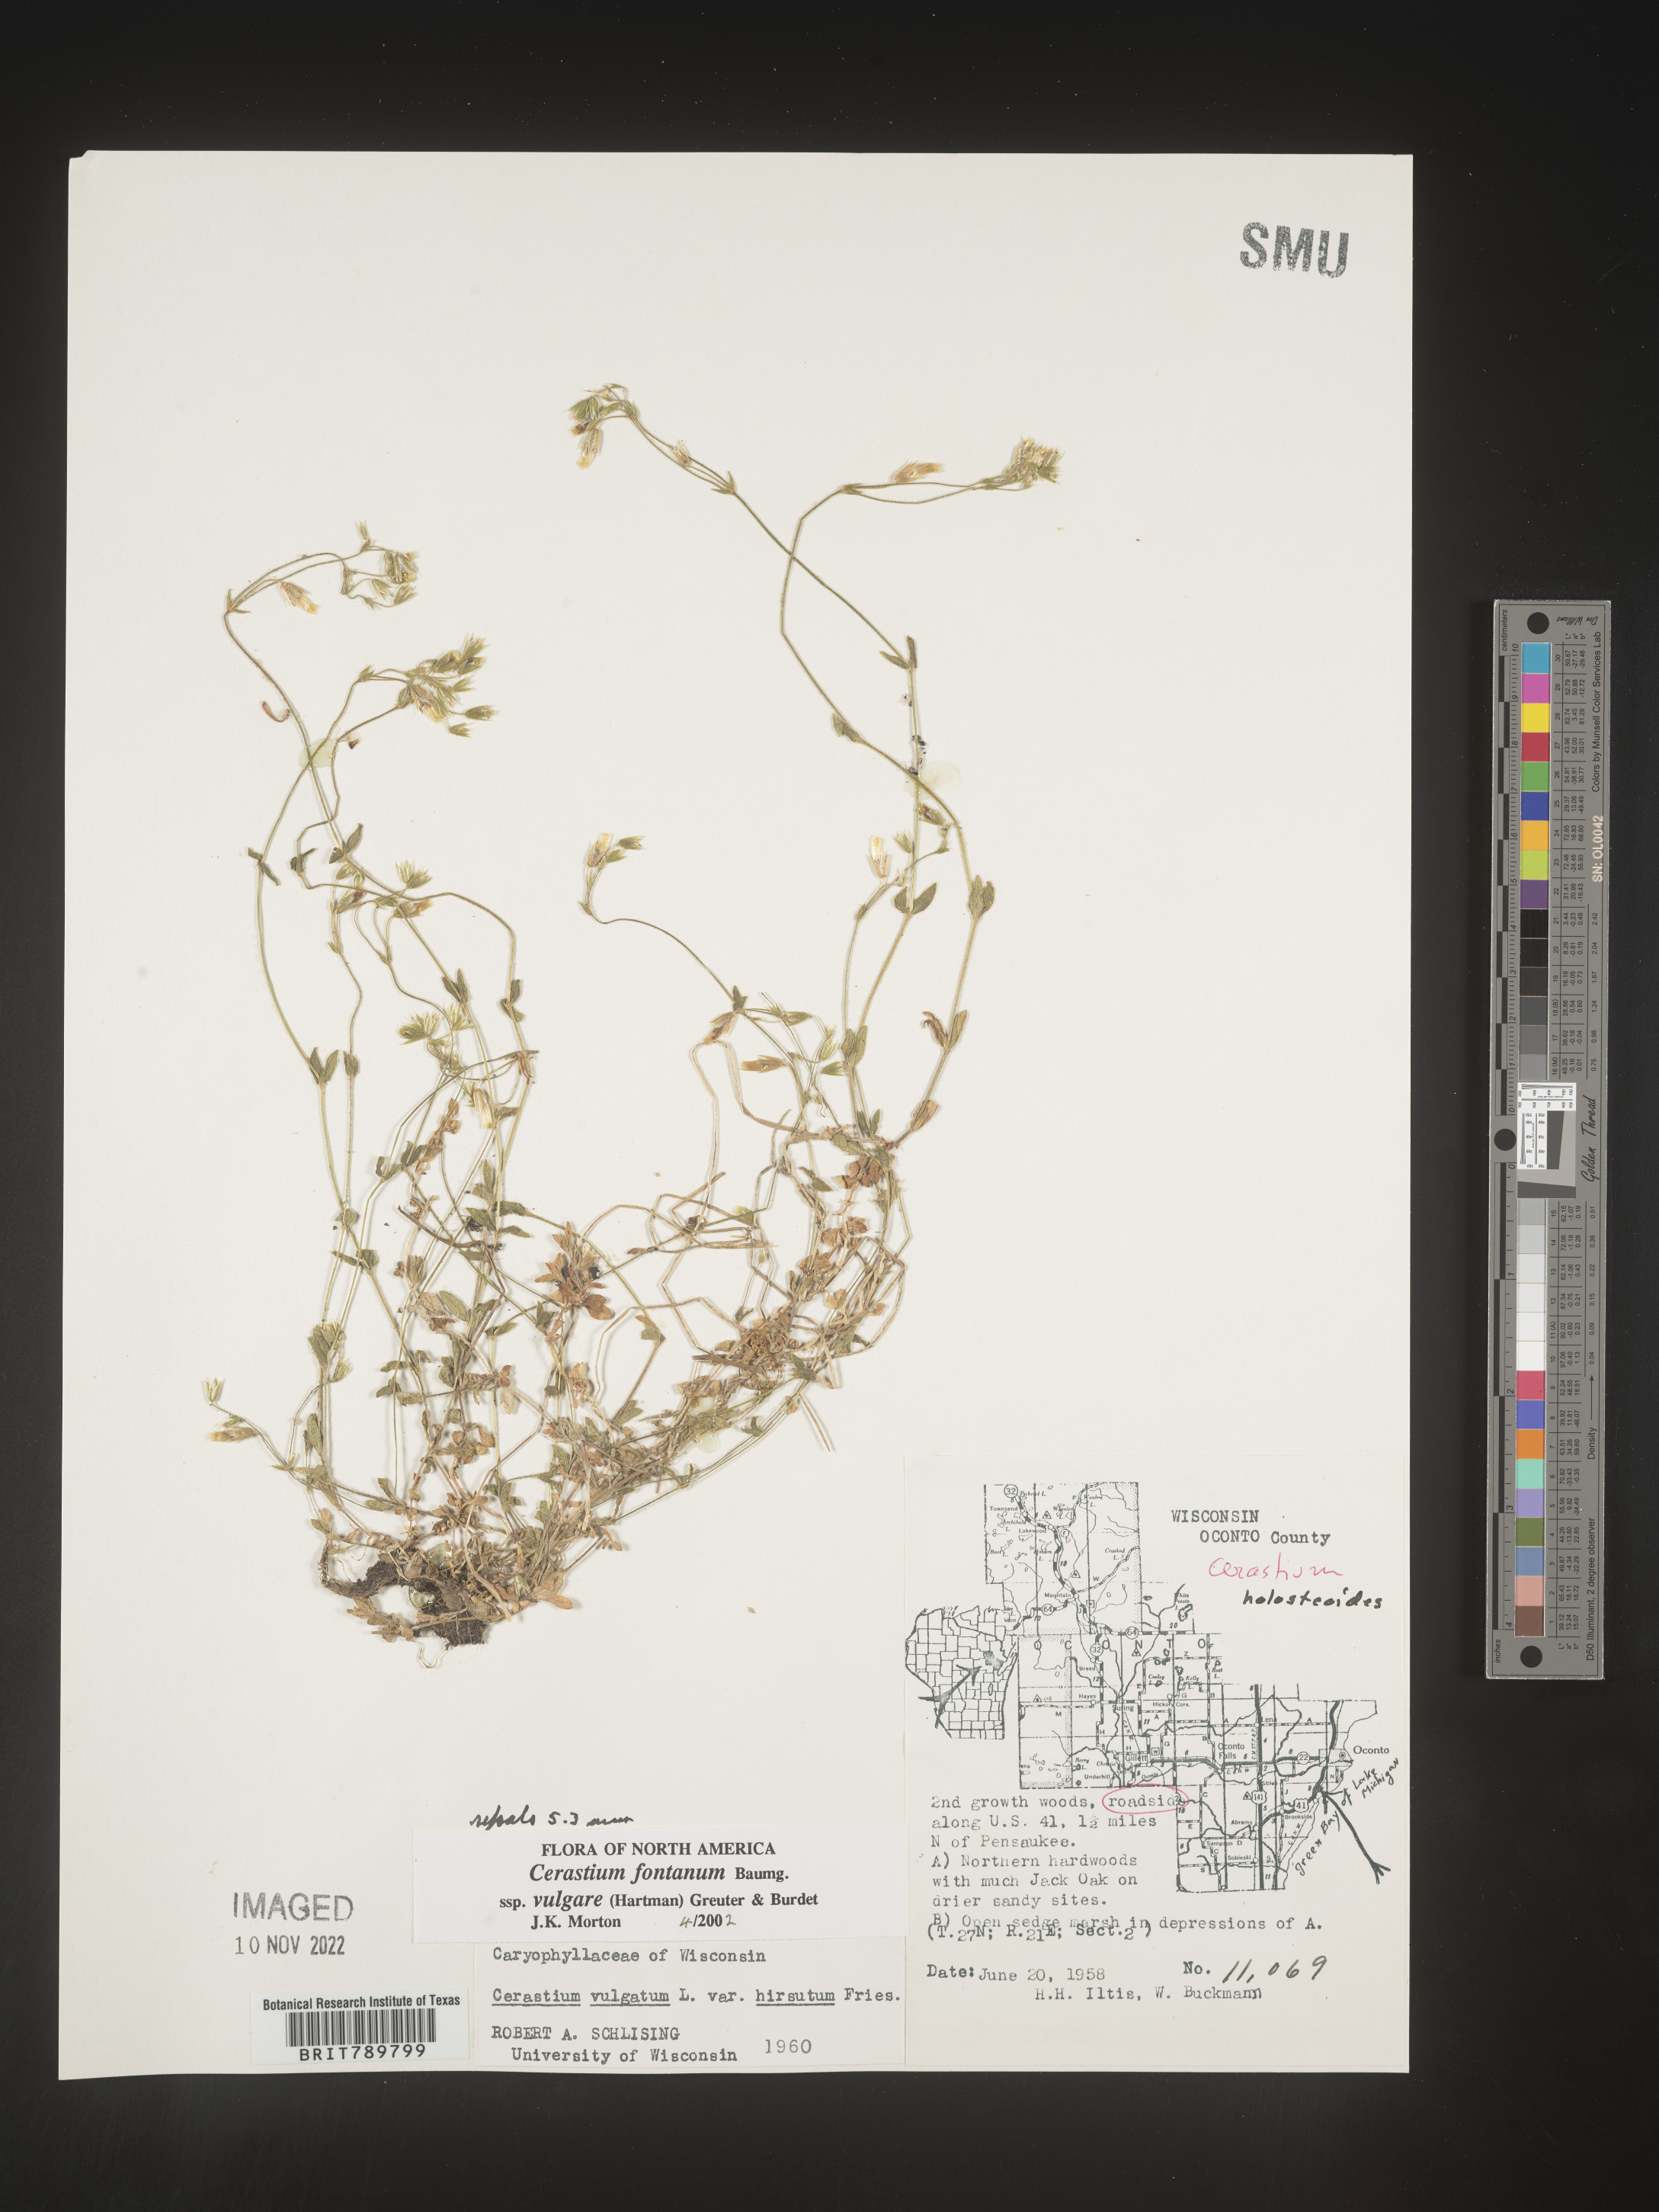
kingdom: Plantae
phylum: Tracheophyta
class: Magnoliopsida
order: Caryophyllales
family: Caryophyllaceae
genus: Cerastium
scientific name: Cerastium fontanum
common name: Common mouse-ear
